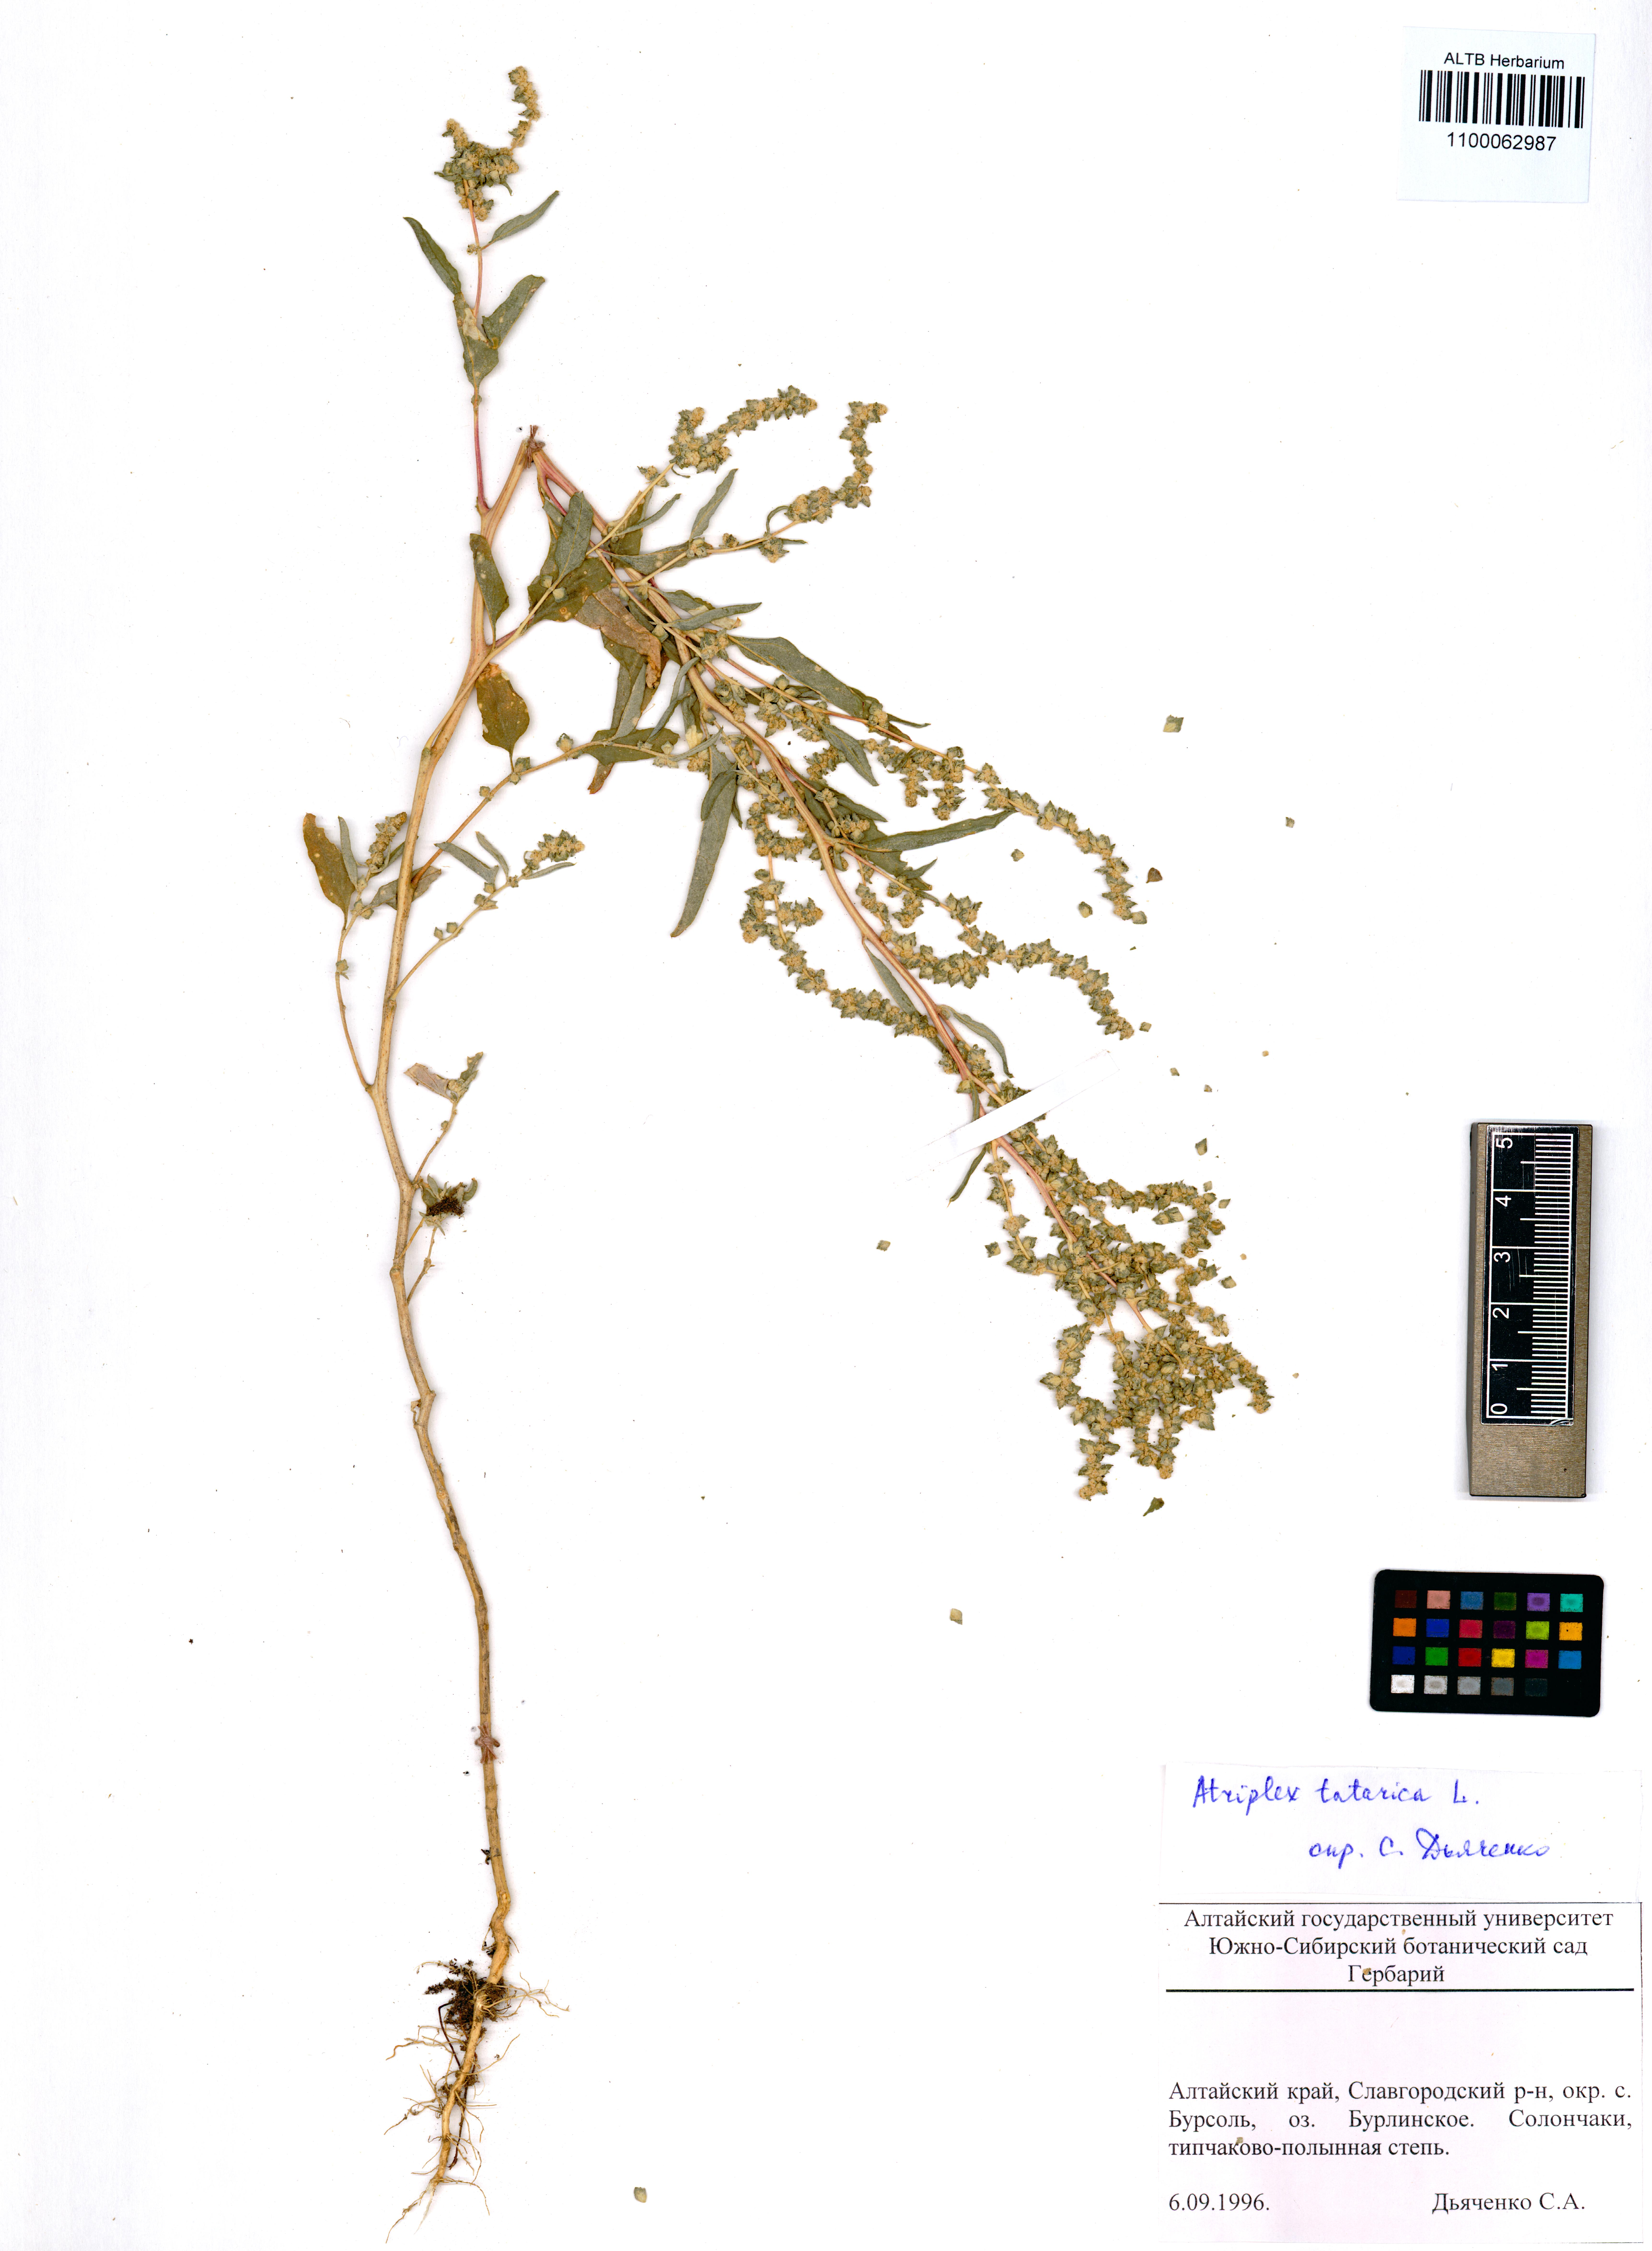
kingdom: Plantae
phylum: Tracheophyta
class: Magnoliopsida
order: Caryophyllales
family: Amaranthaceae
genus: Atriplex
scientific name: Atriplex tatarica
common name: Tatarian orache
